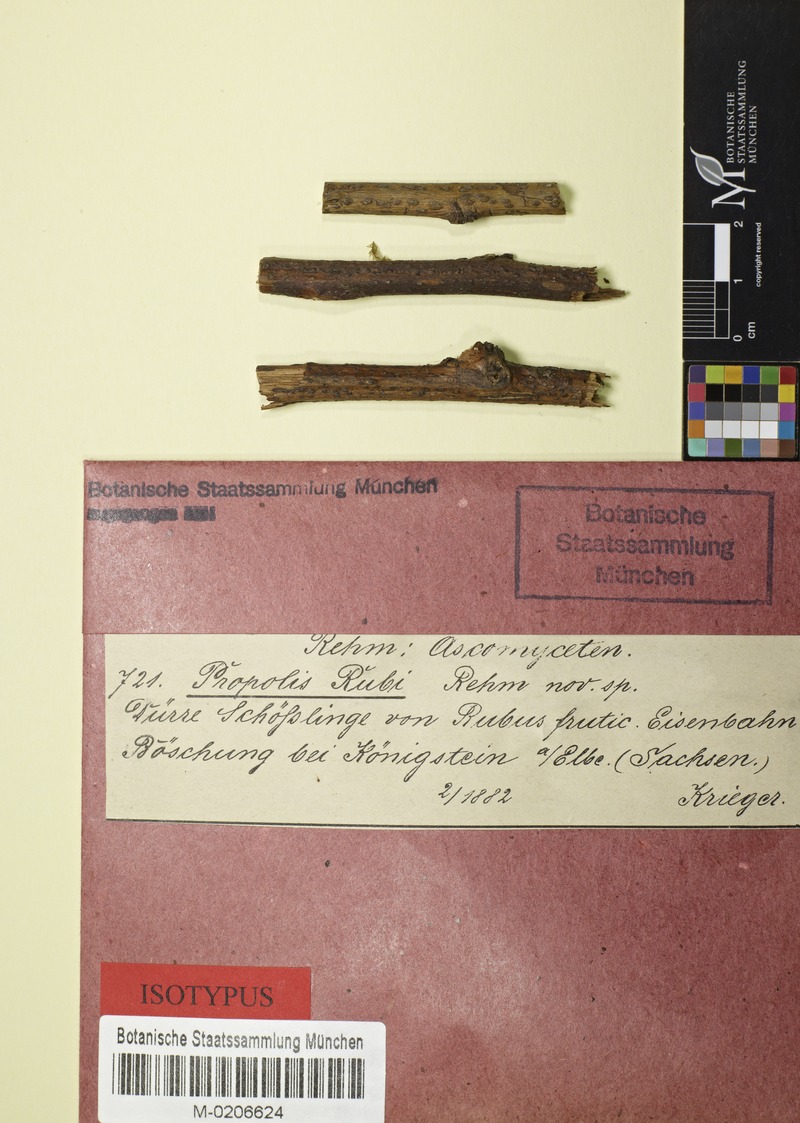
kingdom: Fungi
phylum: Ascomycota
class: Leotiomycetes
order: Phacidiales
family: Phacidiaceae
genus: Pseudophacidium
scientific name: Pseudophacidium
